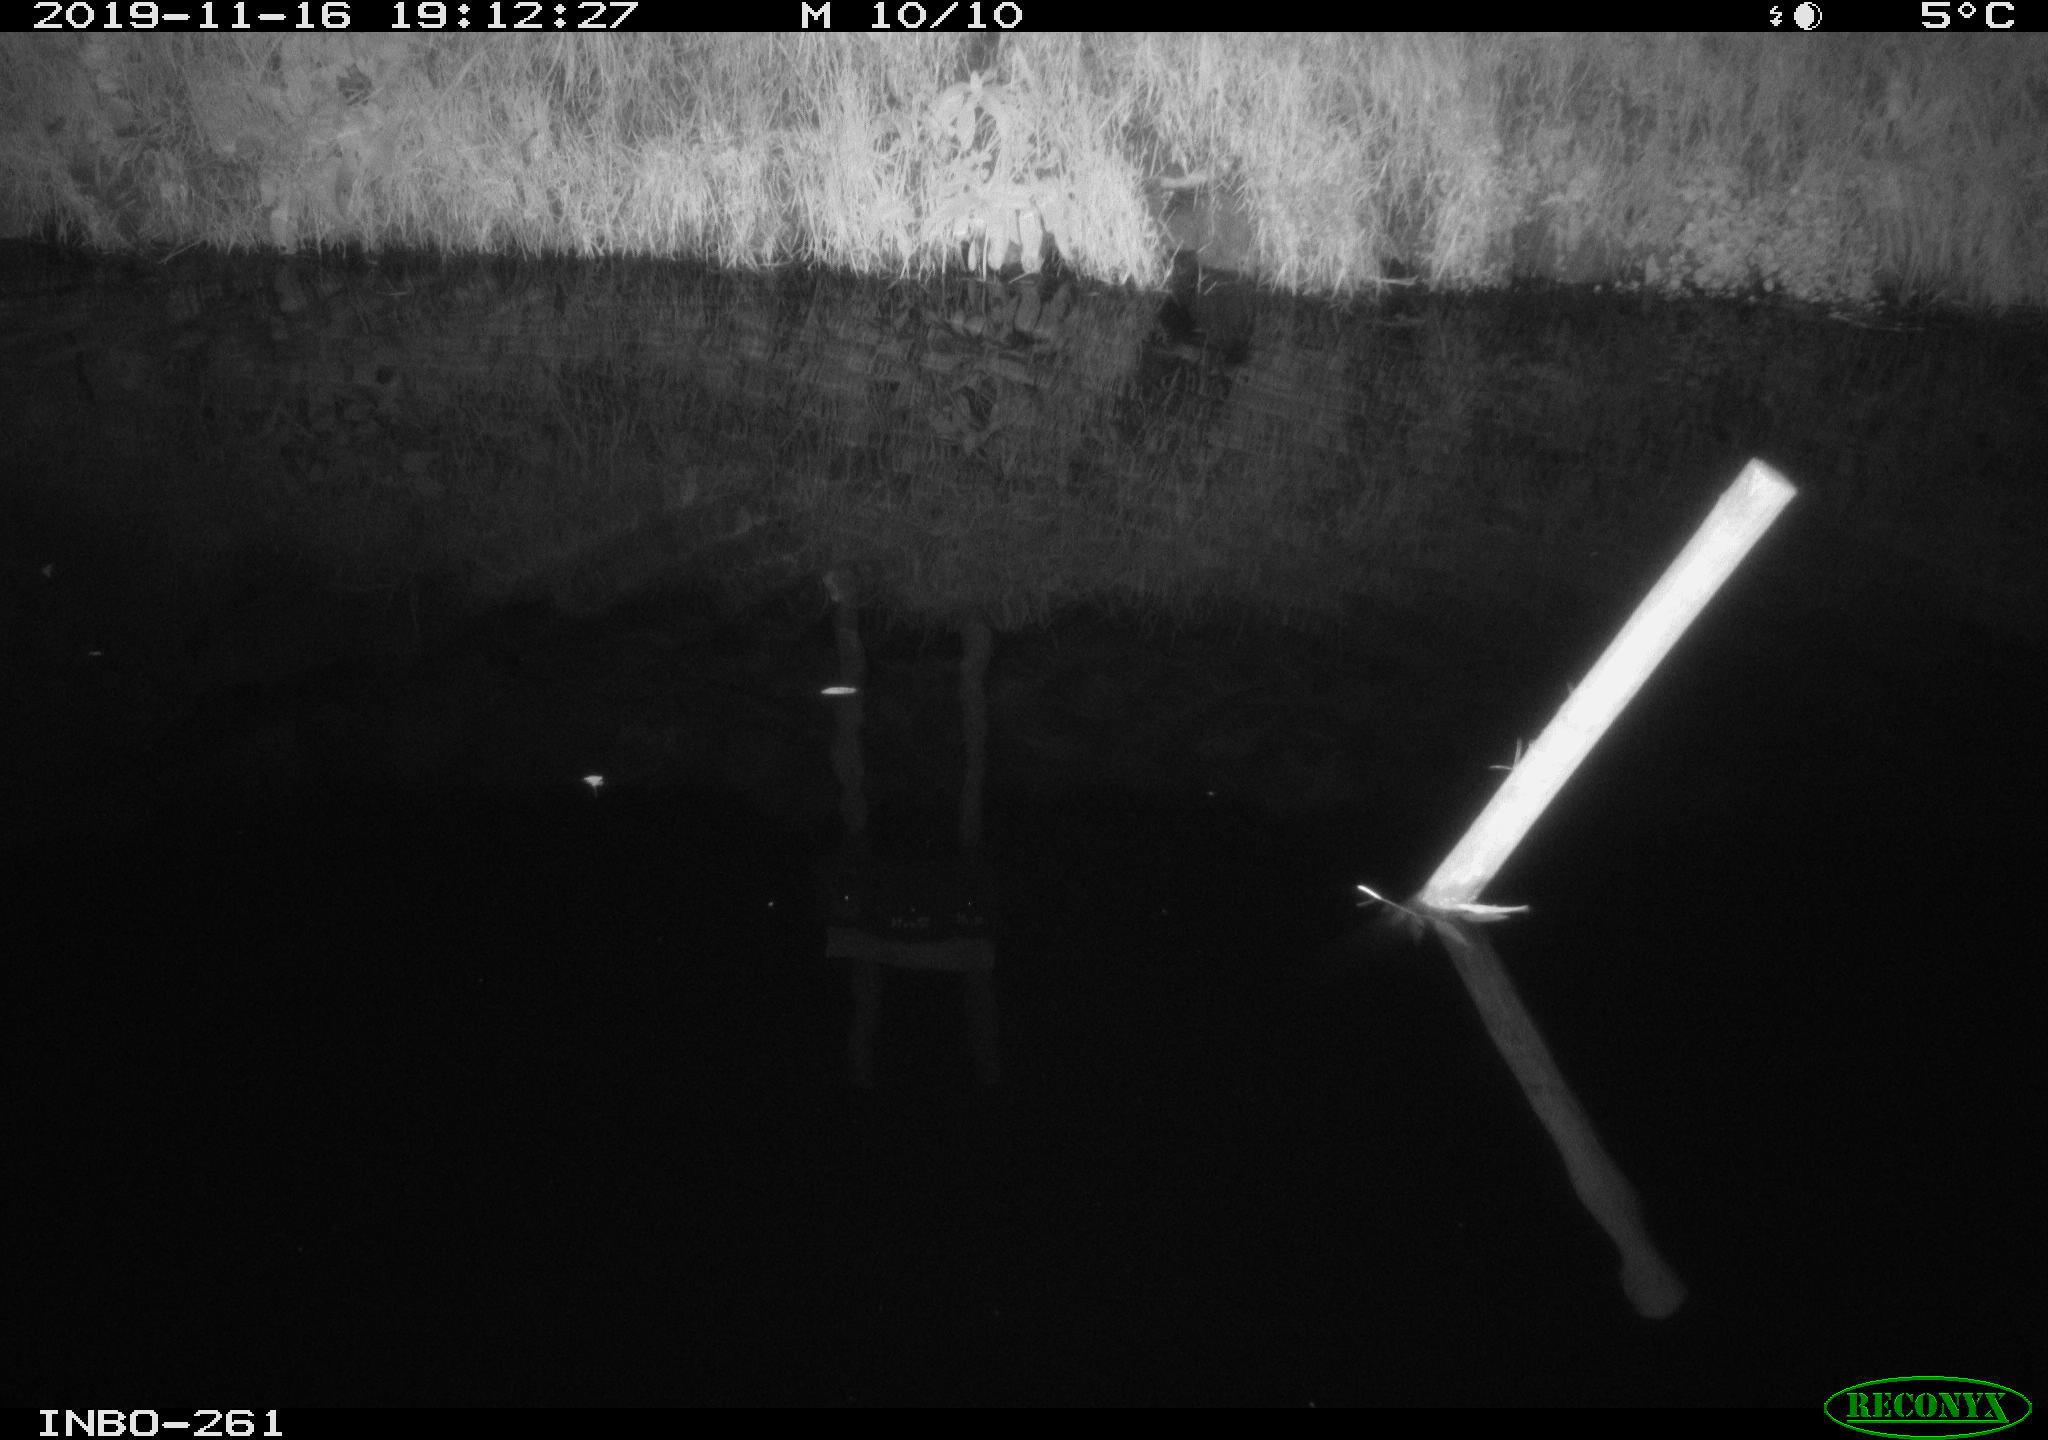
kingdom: Animalia
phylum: Chordata
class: Aves
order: Anseriformes
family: Anatidae
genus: Anas
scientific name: Anas platyrhynchos
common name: Mallard
